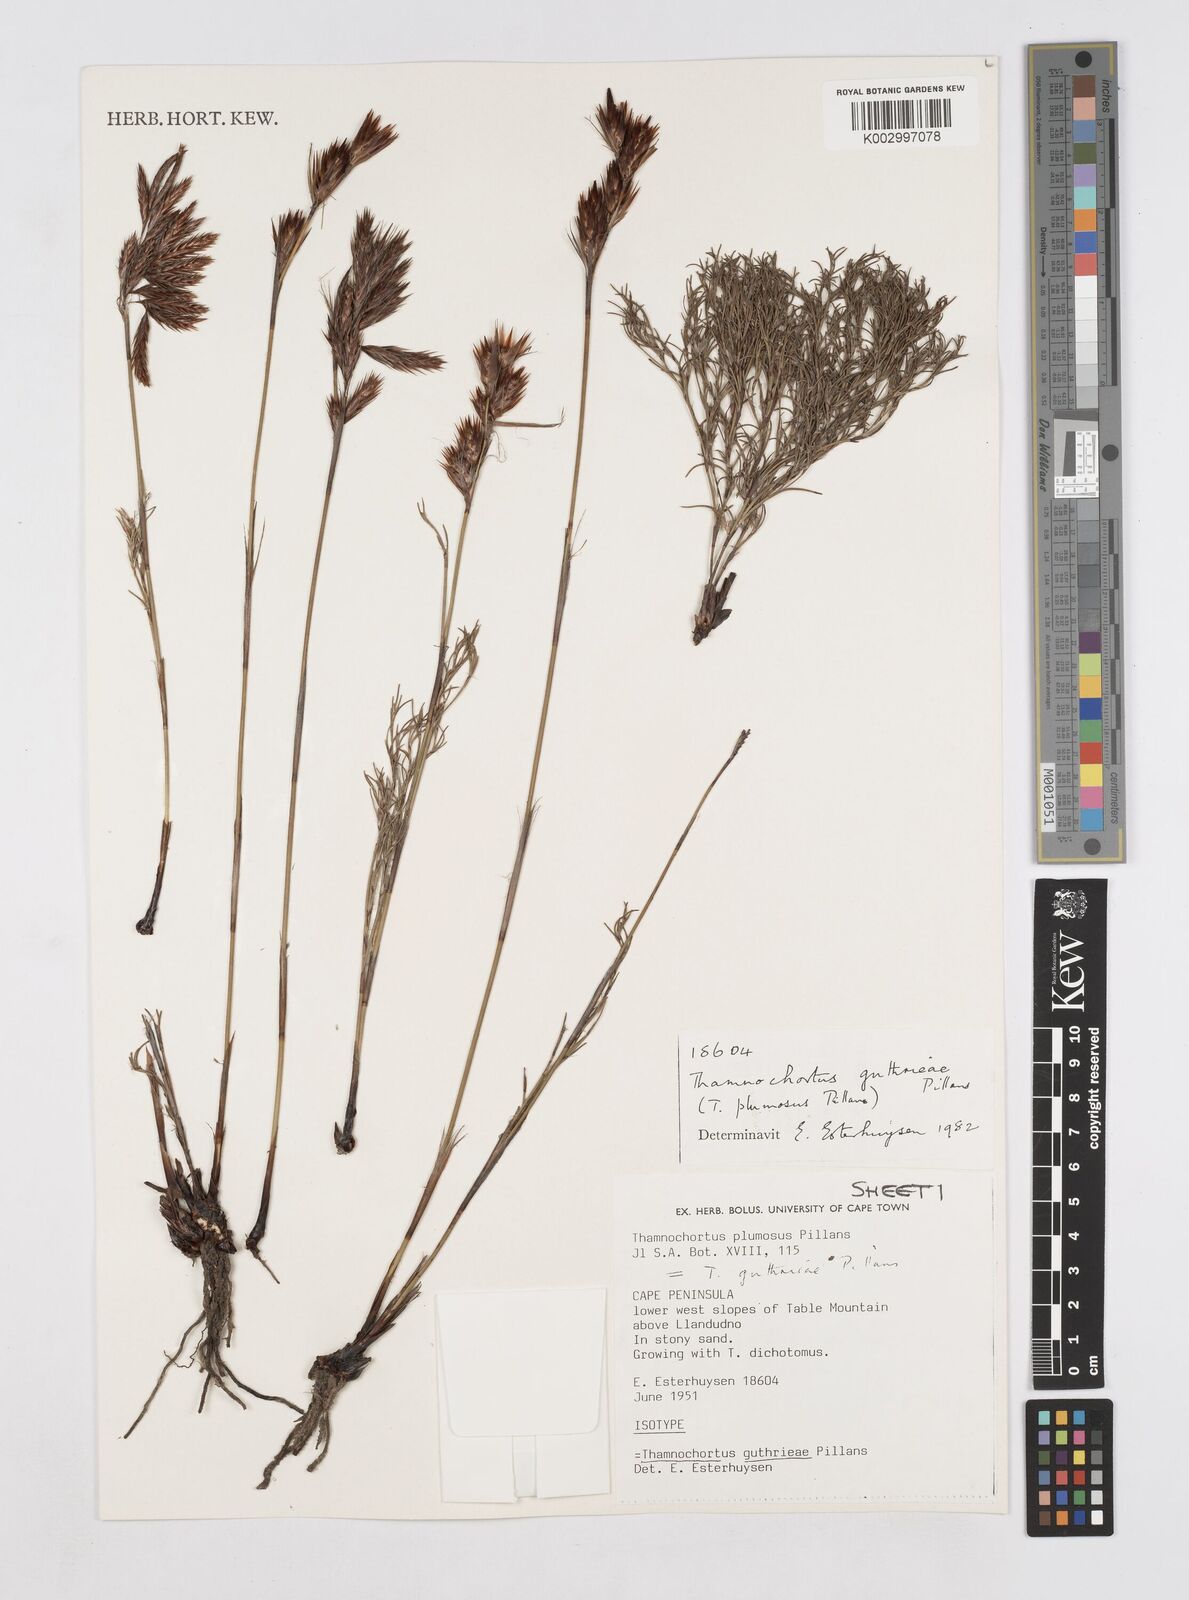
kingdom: Plantae
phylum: Tracheophyta
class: Liliopsida
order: Poales
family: Restionaceae
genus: Thamnochortus
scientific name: Thamnochortus guthrieae
